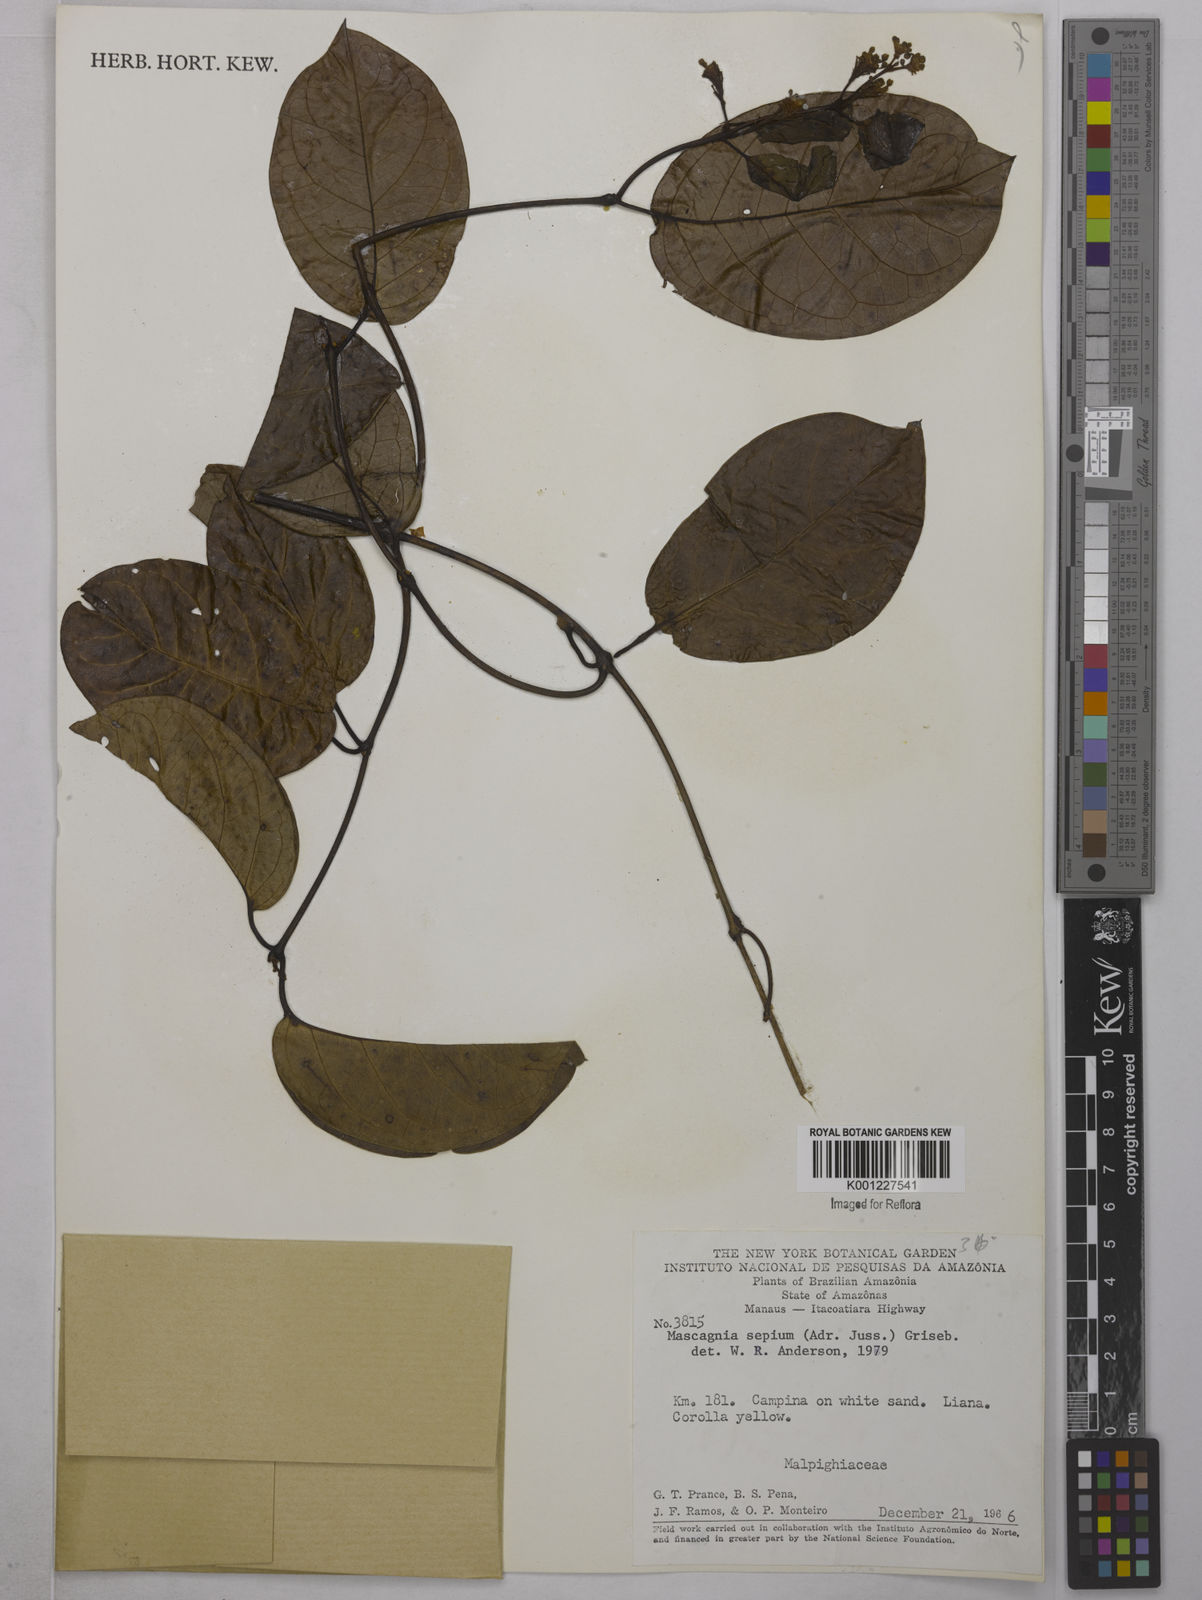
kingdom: Plantae
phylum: Tracheophyta
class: Magnoliopsida
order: Malpighiales
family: Malpighiaceae
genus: Mascagnia
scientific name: Mascagnia sepium
